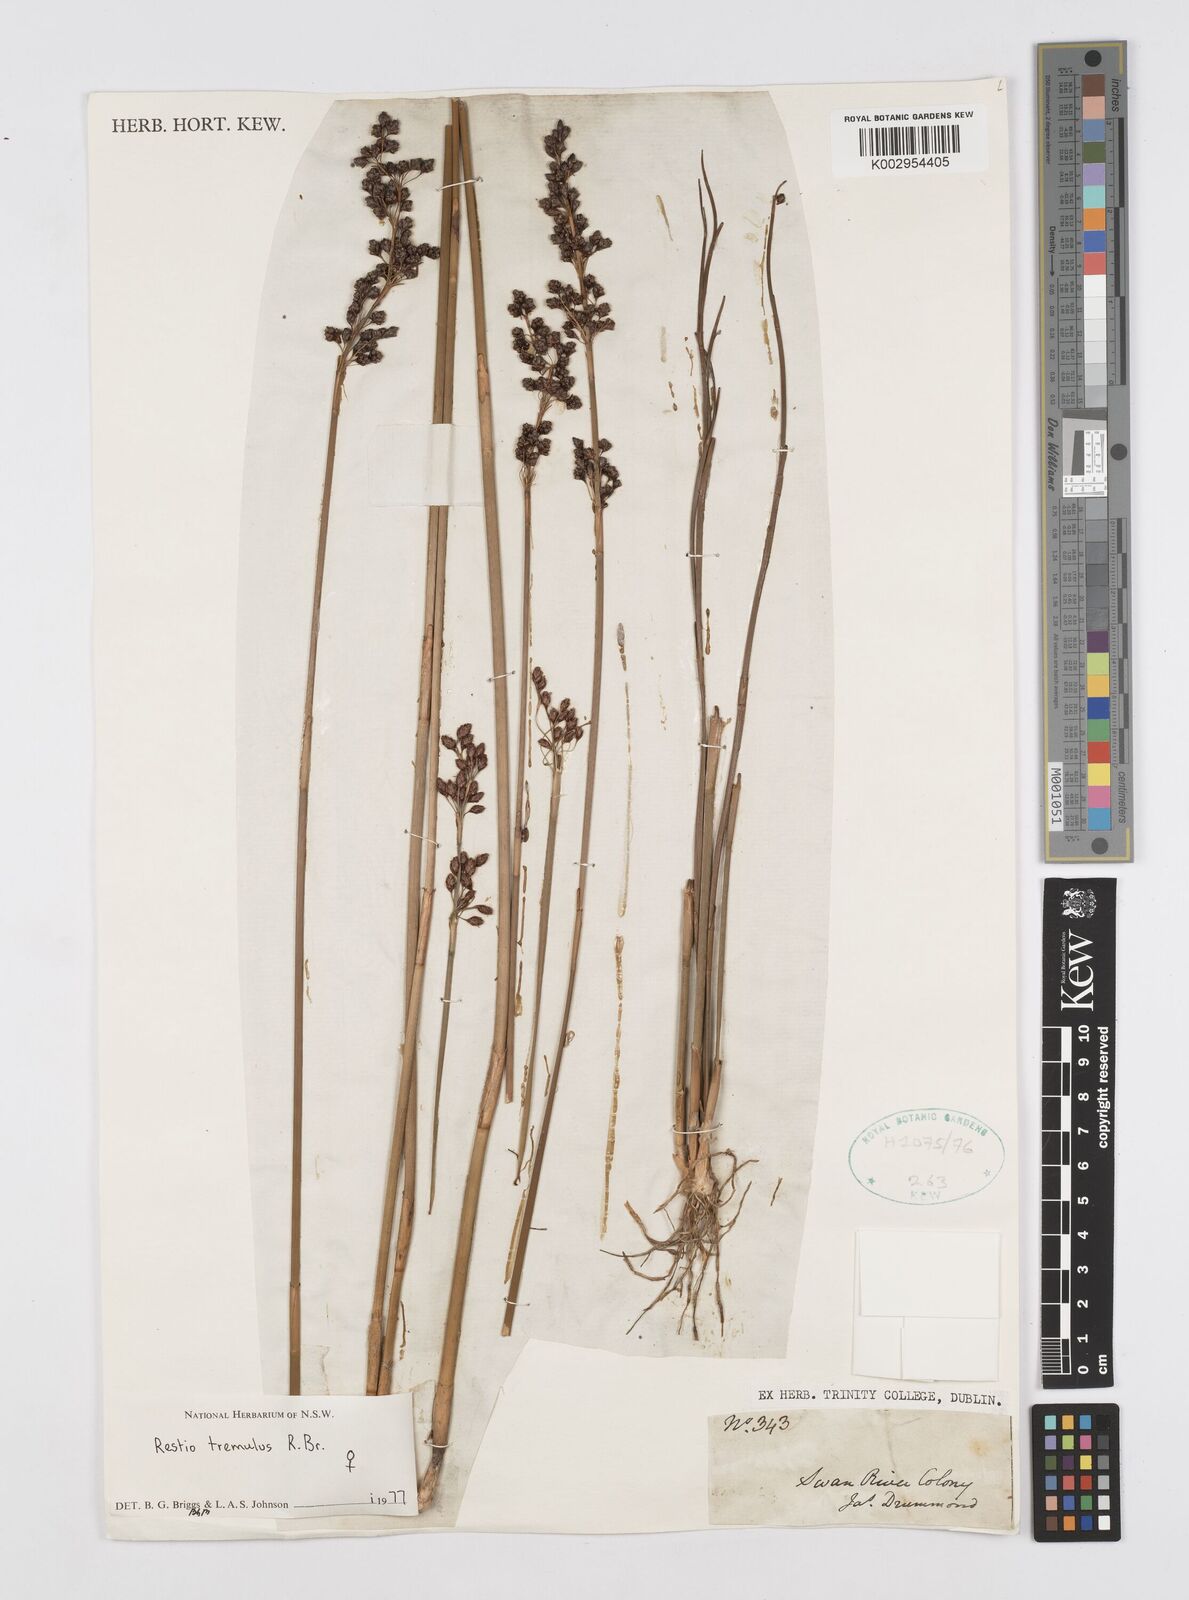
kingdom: Plantae
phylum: Tracheophyta
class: Liliopsida
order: Poales
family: Restionaceae
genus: Tremulina
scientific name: Tremulina tremula
